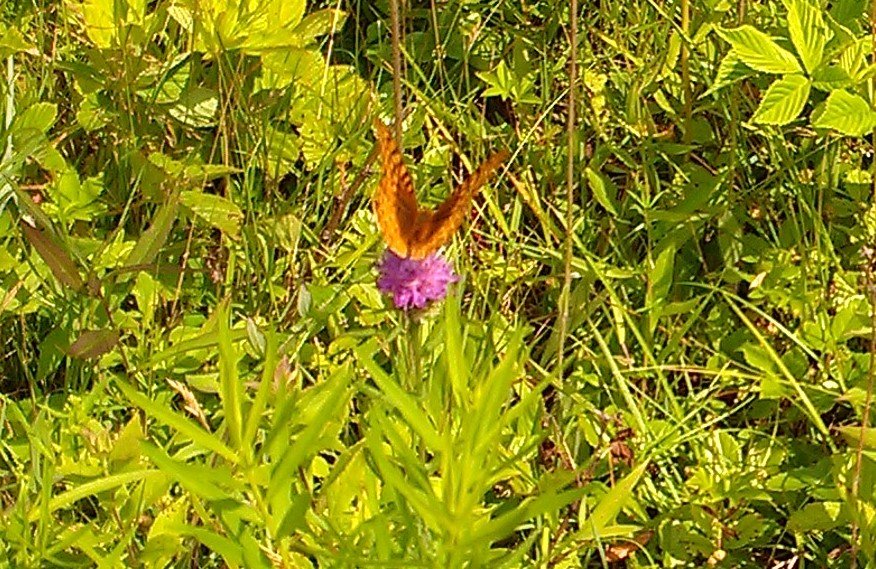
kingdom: Animalia
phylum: Arthropoda
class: Insecta
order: Lepidoptera
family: Nymphalidae
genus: Speyeria
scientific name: Speyeria cybele
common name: Great Spangled Fritillary
